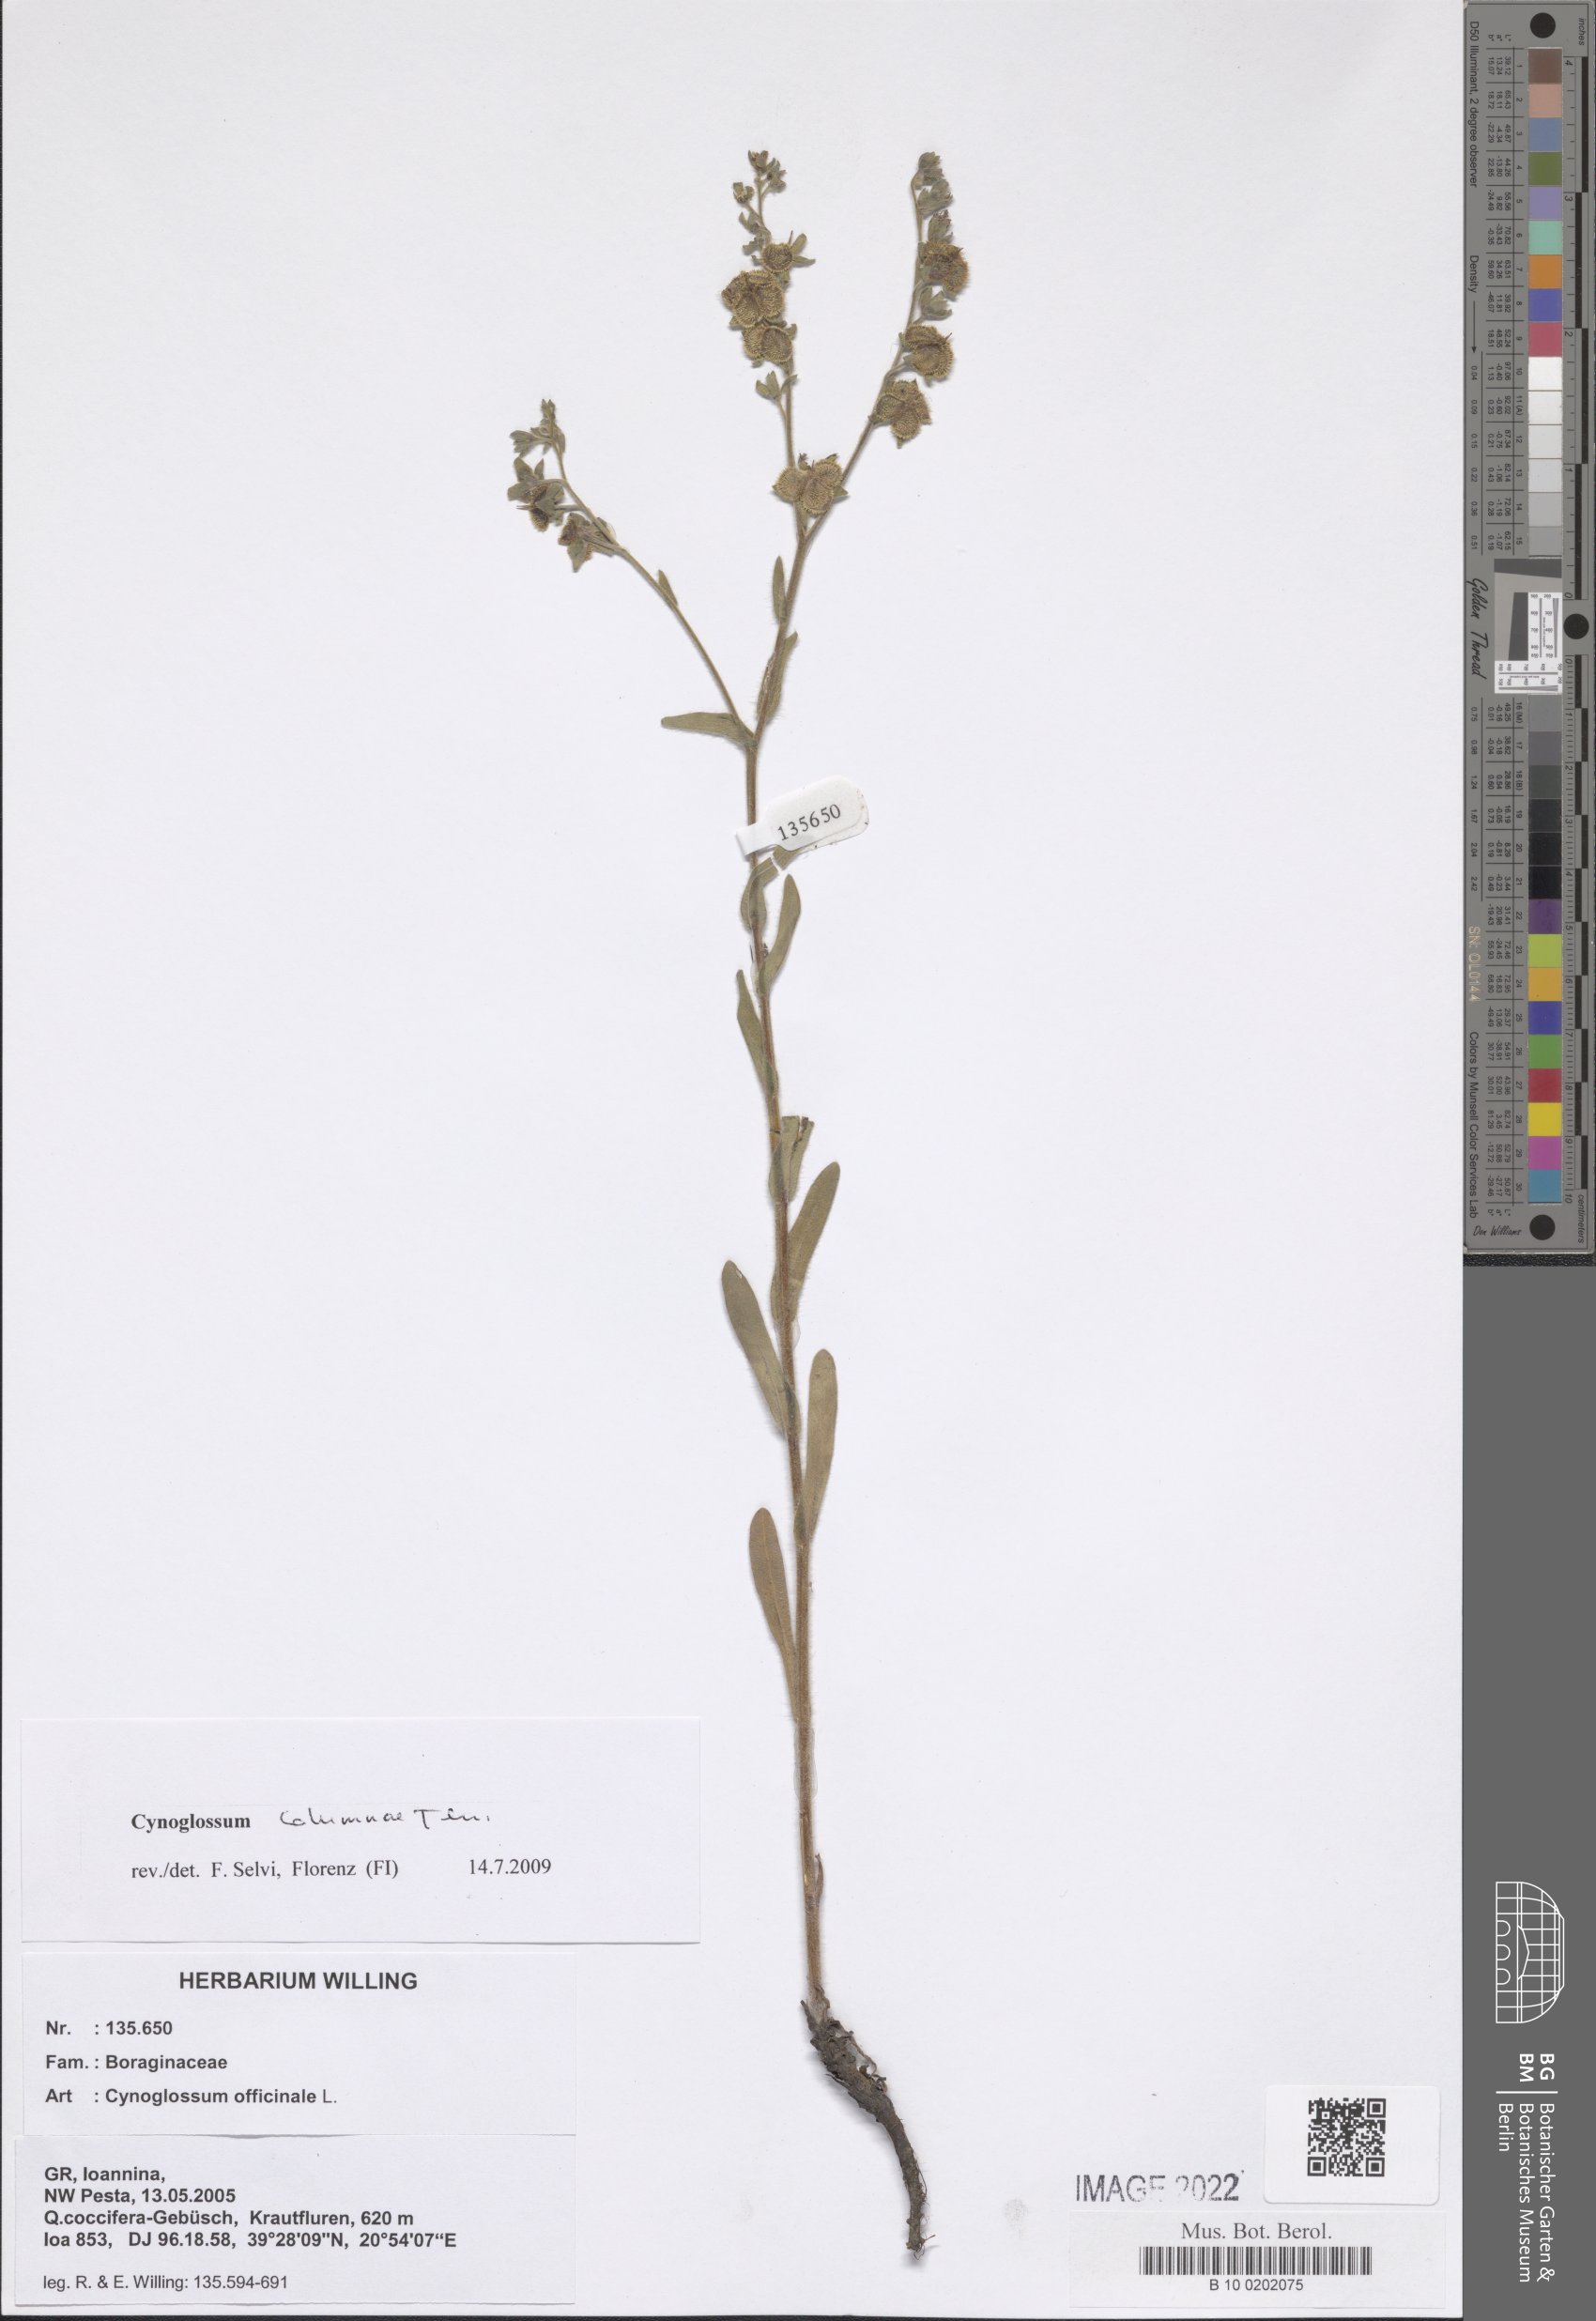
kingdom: Plantae
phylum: Tracheophyta
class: Magnoliopsida
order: Boraginales
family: Boraginaceae
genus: Rindera
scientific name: Rindera columnae
